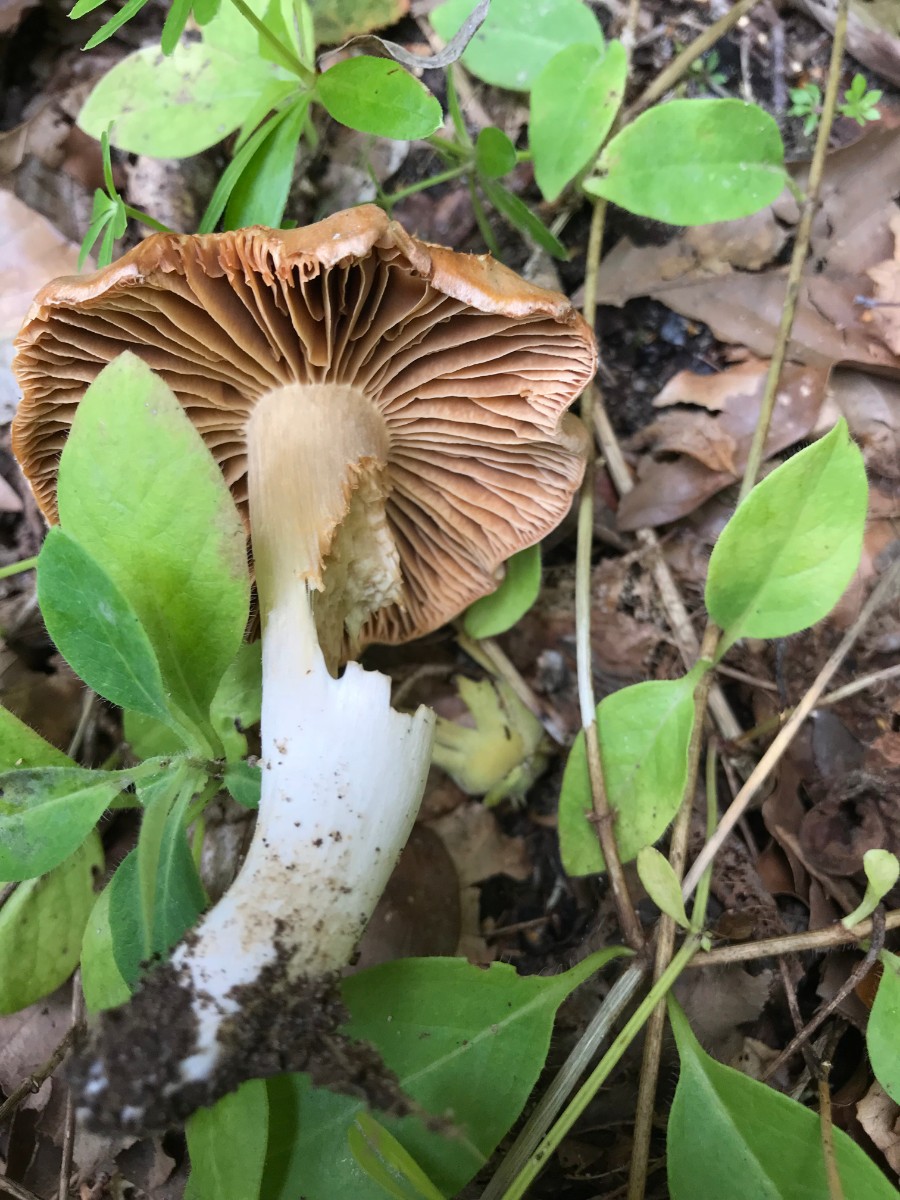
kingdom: Fungi
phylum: Basidiomycota
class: Agaricomycetes
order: Agaricales
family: Cortinariaceae
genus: Cortinarius
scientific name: Cortinarius
